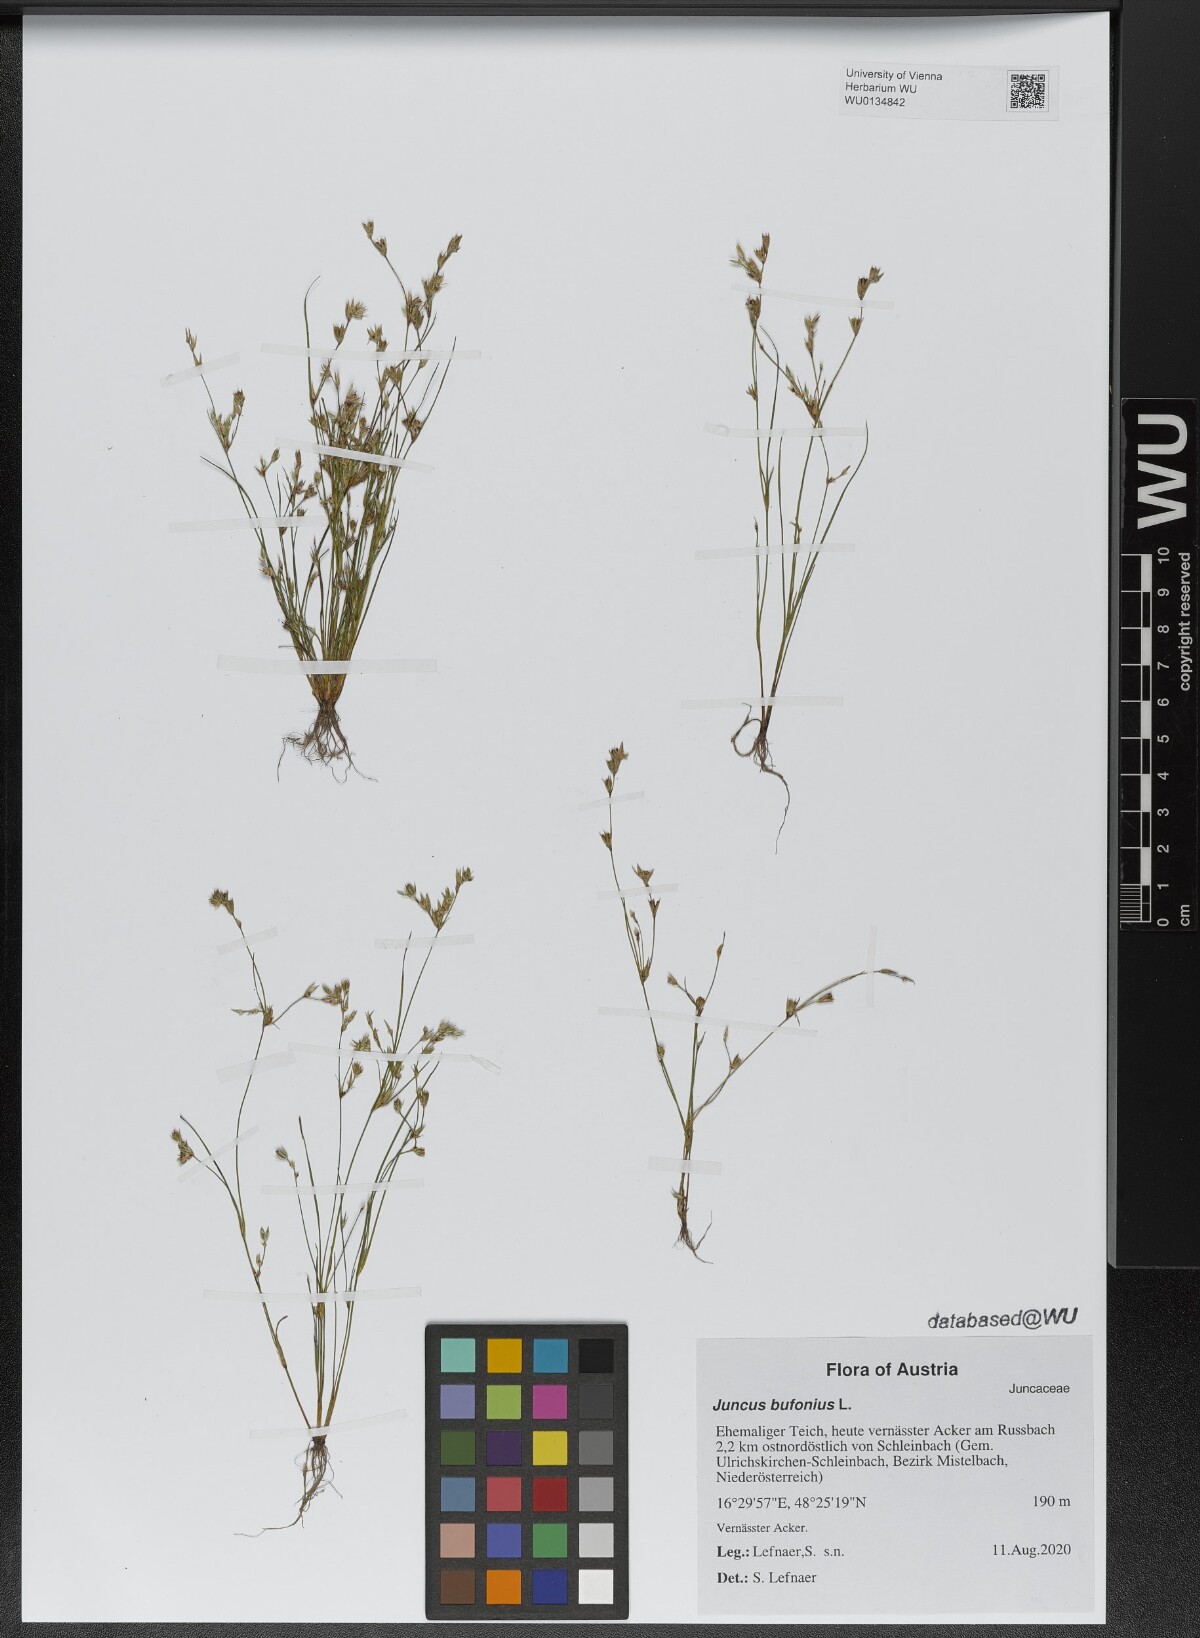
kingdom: Plantae
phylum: Tracheophyta
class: Liliopsida
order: Poales
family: Juncaceae
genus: Juncus
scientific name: Juncus bufonius
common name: Toad rush
